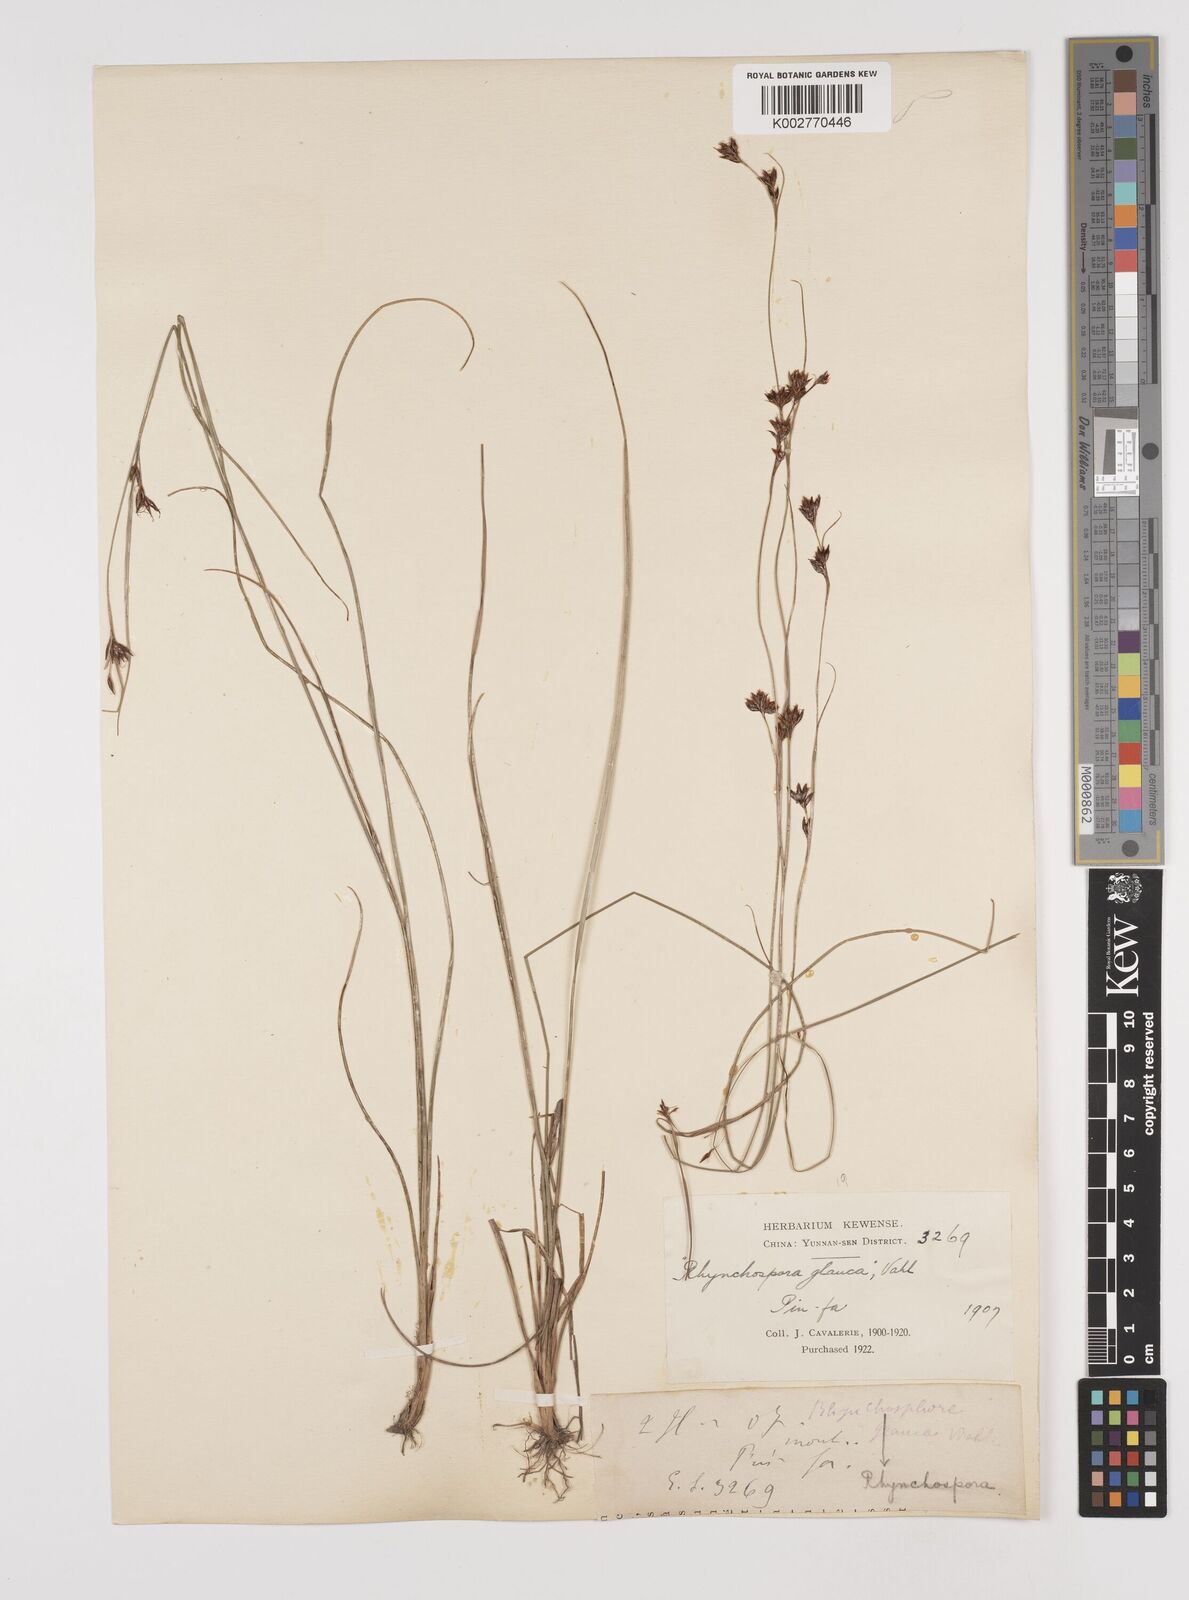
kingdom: Plantae
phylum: Tracheophyta
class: Liliopsida
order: Poales
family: Cyperaceae
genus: Rhynchospora
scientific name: Rhynchospora
